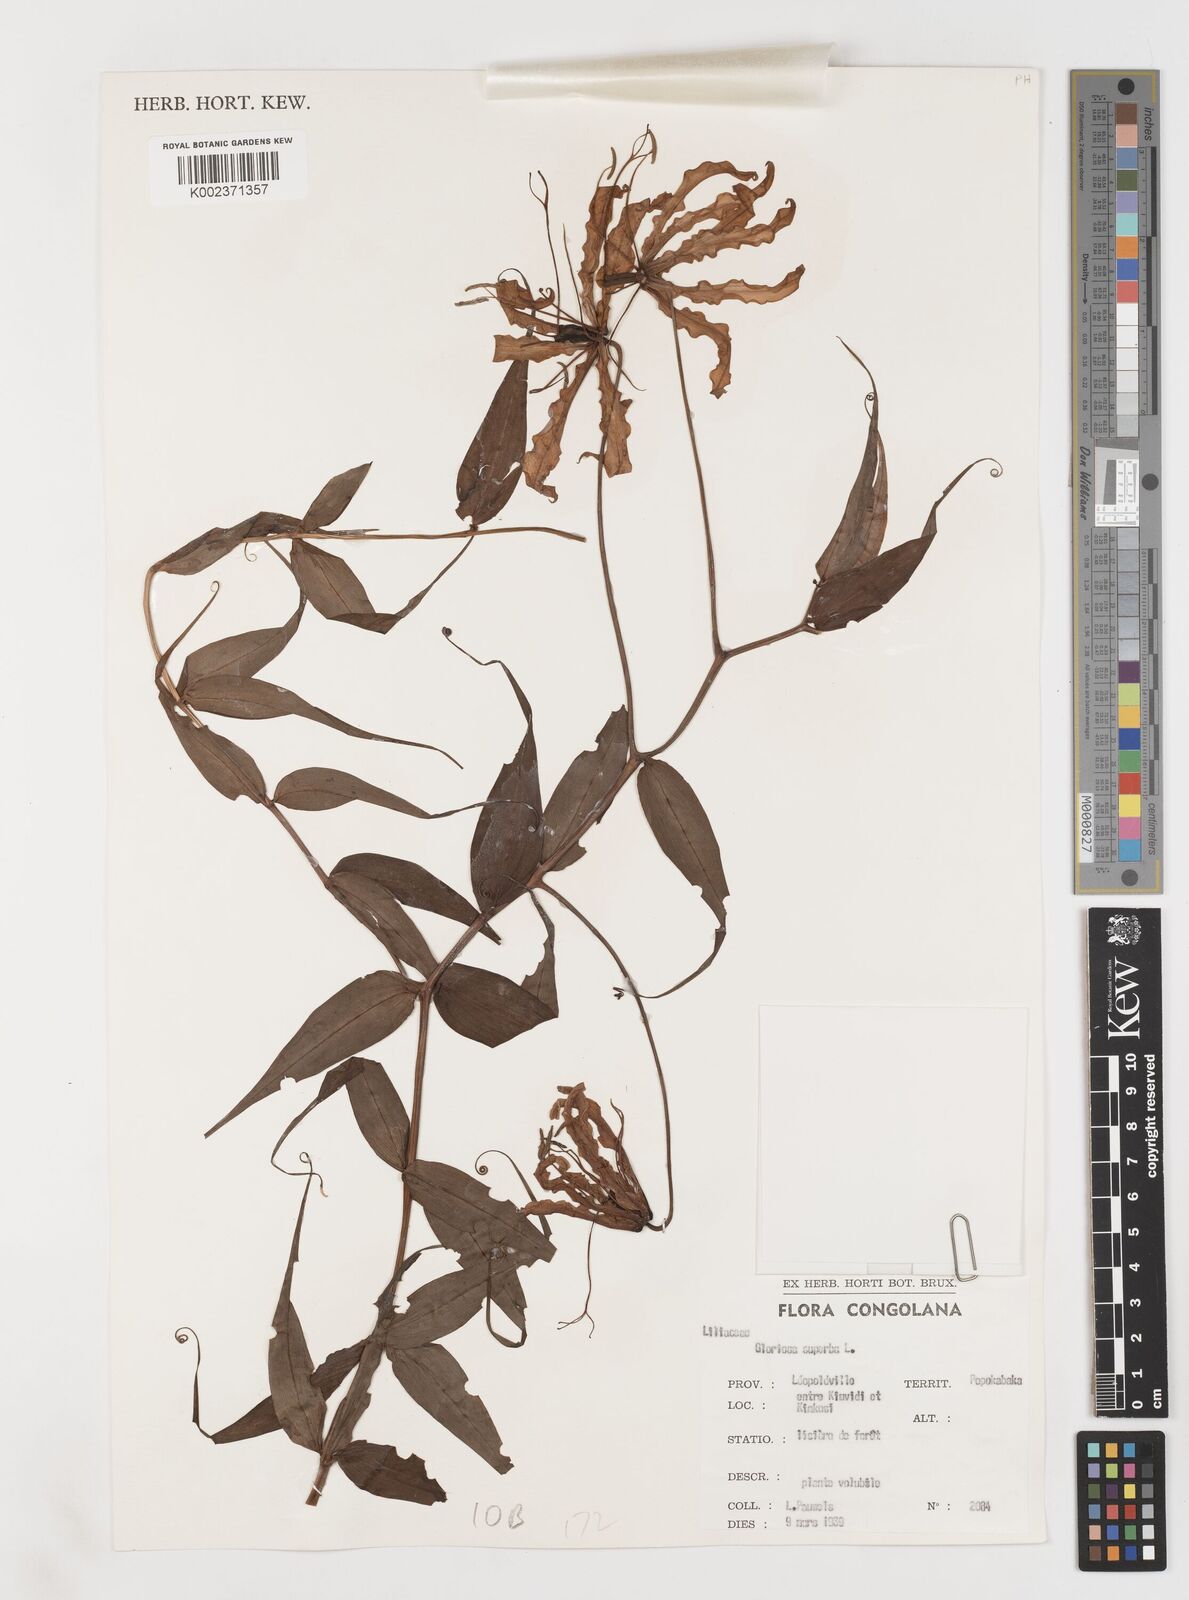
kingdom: Plantae
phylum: Tracheophyta
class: Liliopsida
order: Liliales
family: Colchicaceae
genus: Gloriosa
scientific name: Gloriosa superba
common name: Flame lily
